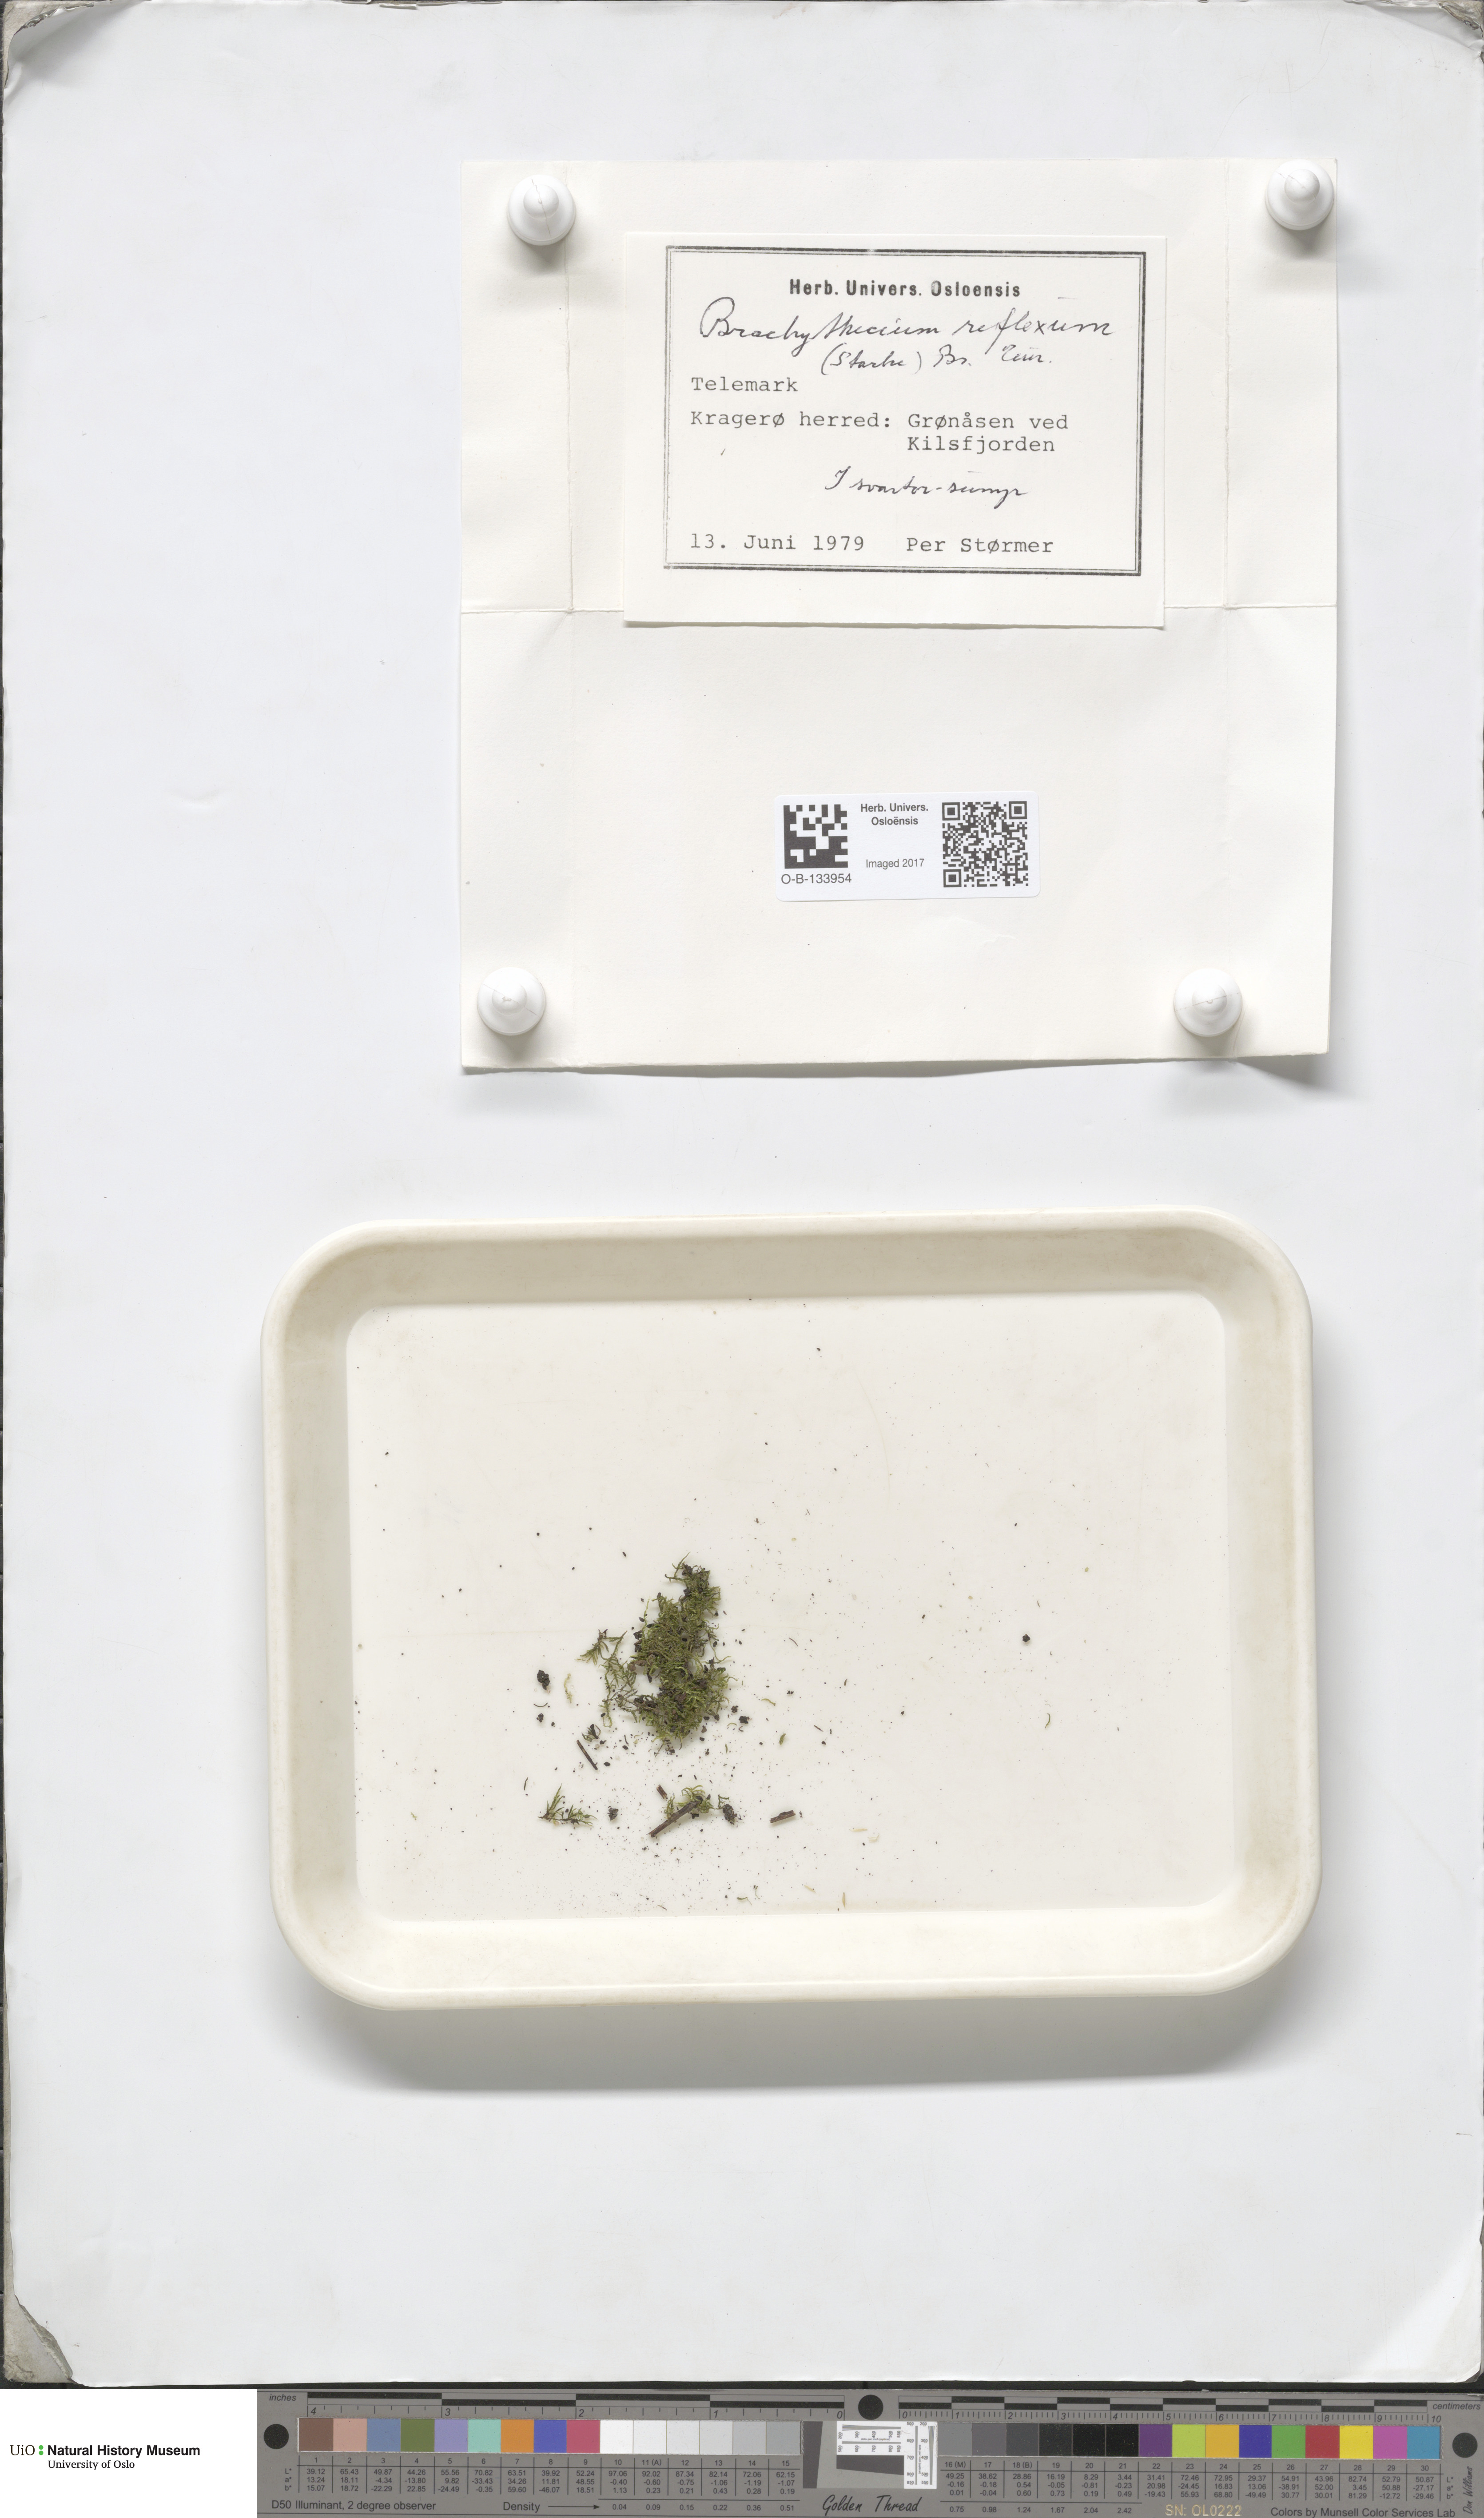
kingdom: Plantae
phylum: Bryophyta
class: Bryopsida
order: Hypnales
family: Brachytheciaceae
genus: Sciuro-hypnum
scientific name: Sciuro-hypnum reflexum
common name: Reflexed feather-moss
